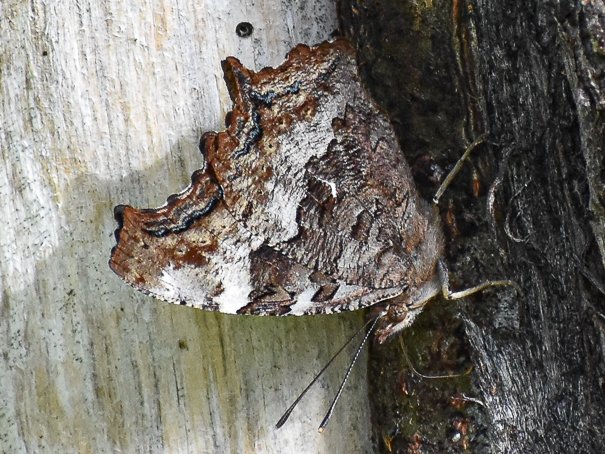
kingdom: Animalia
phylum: Arthropoda
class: Insecta
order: Lepidoptera
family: Nymphalidae
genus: Polygonia
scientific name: Polygonia vaualbum
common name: Compton Tortoiseshell
